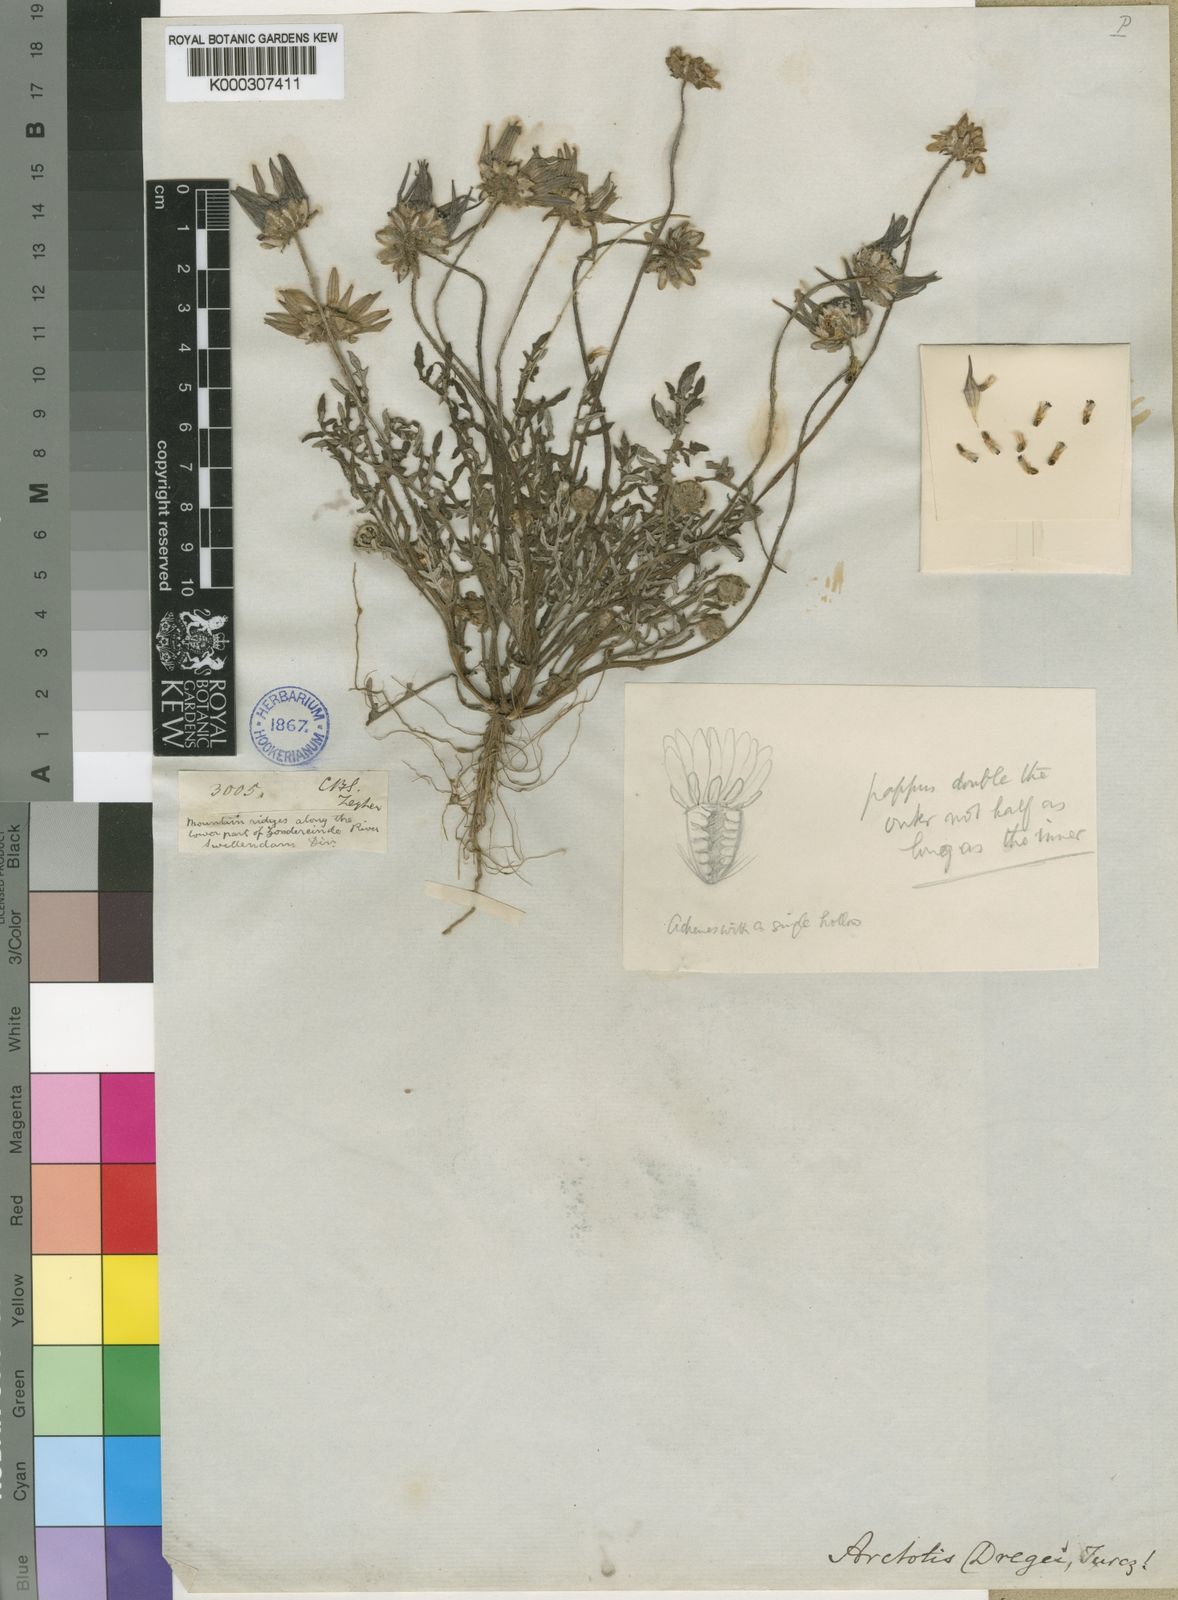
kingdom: Plantae
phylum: Tracheophyta
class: Magnoliopsida
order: Asterales
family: Asteraceae
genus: Arctotis
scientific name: Arctotis dregei
